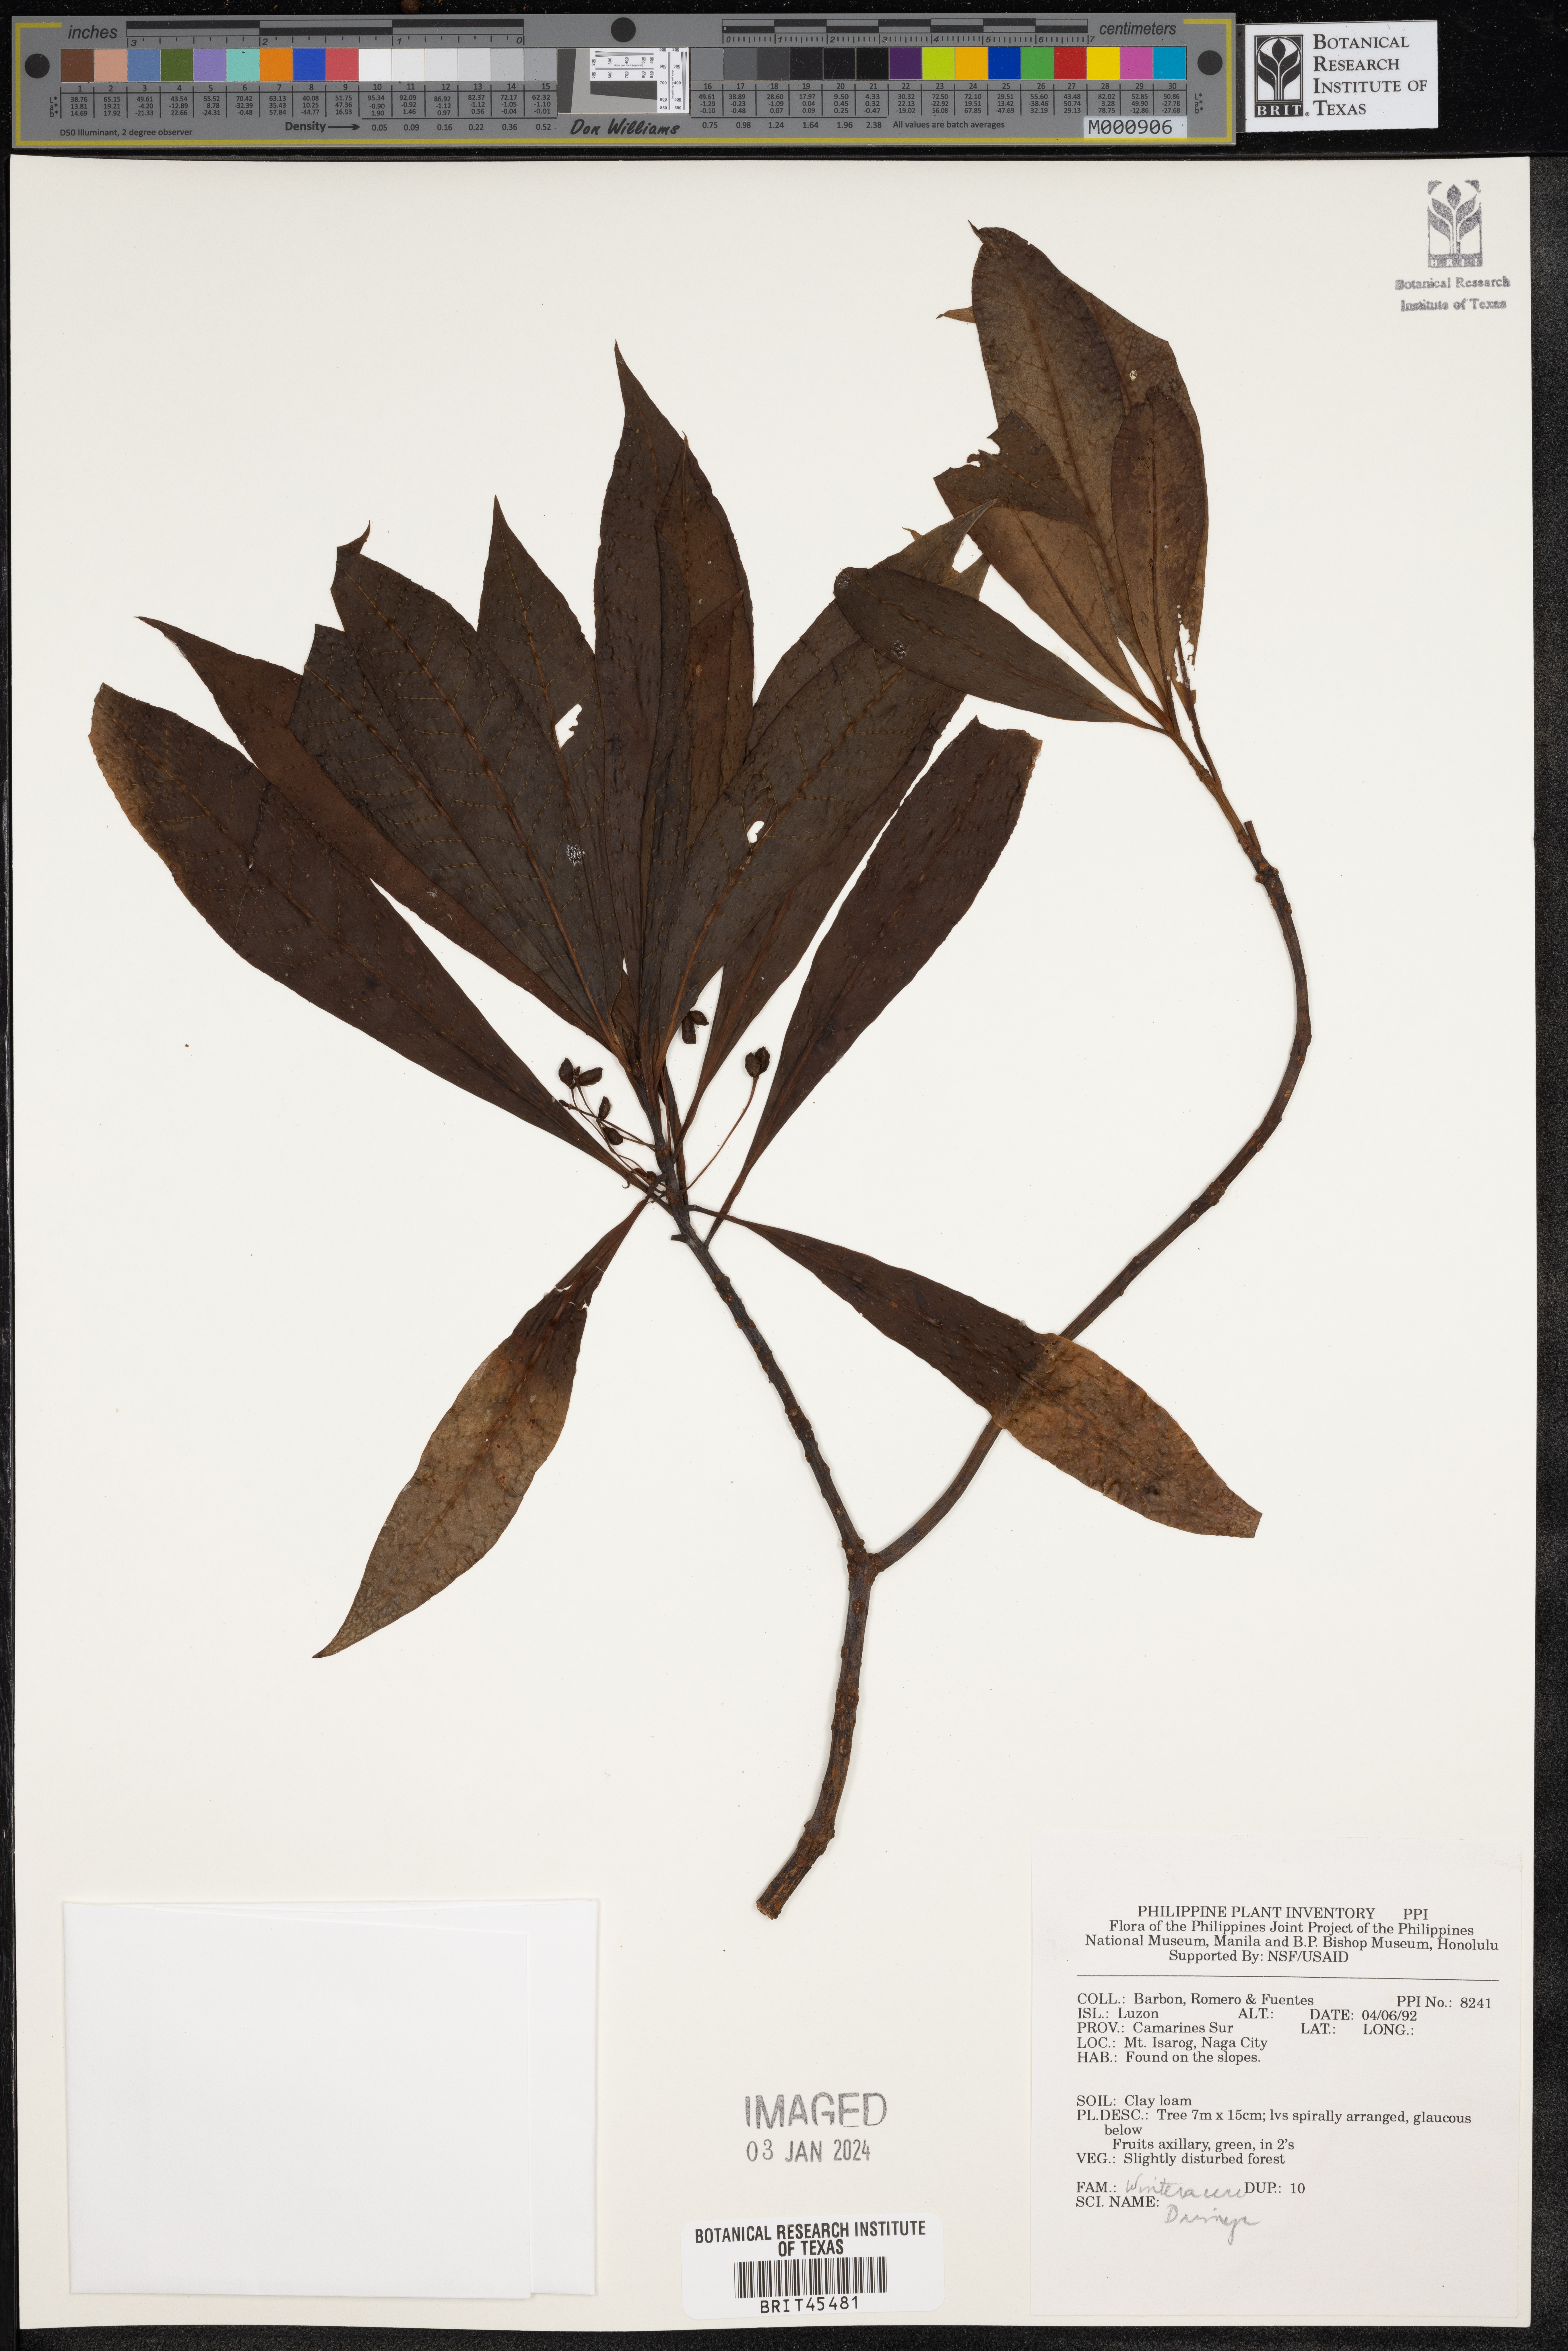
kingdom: Plantae
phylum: Tracheophyta
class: Magnoliopsida
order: Canellales
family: Winteraceae
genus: Drimys
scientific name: Drimys
